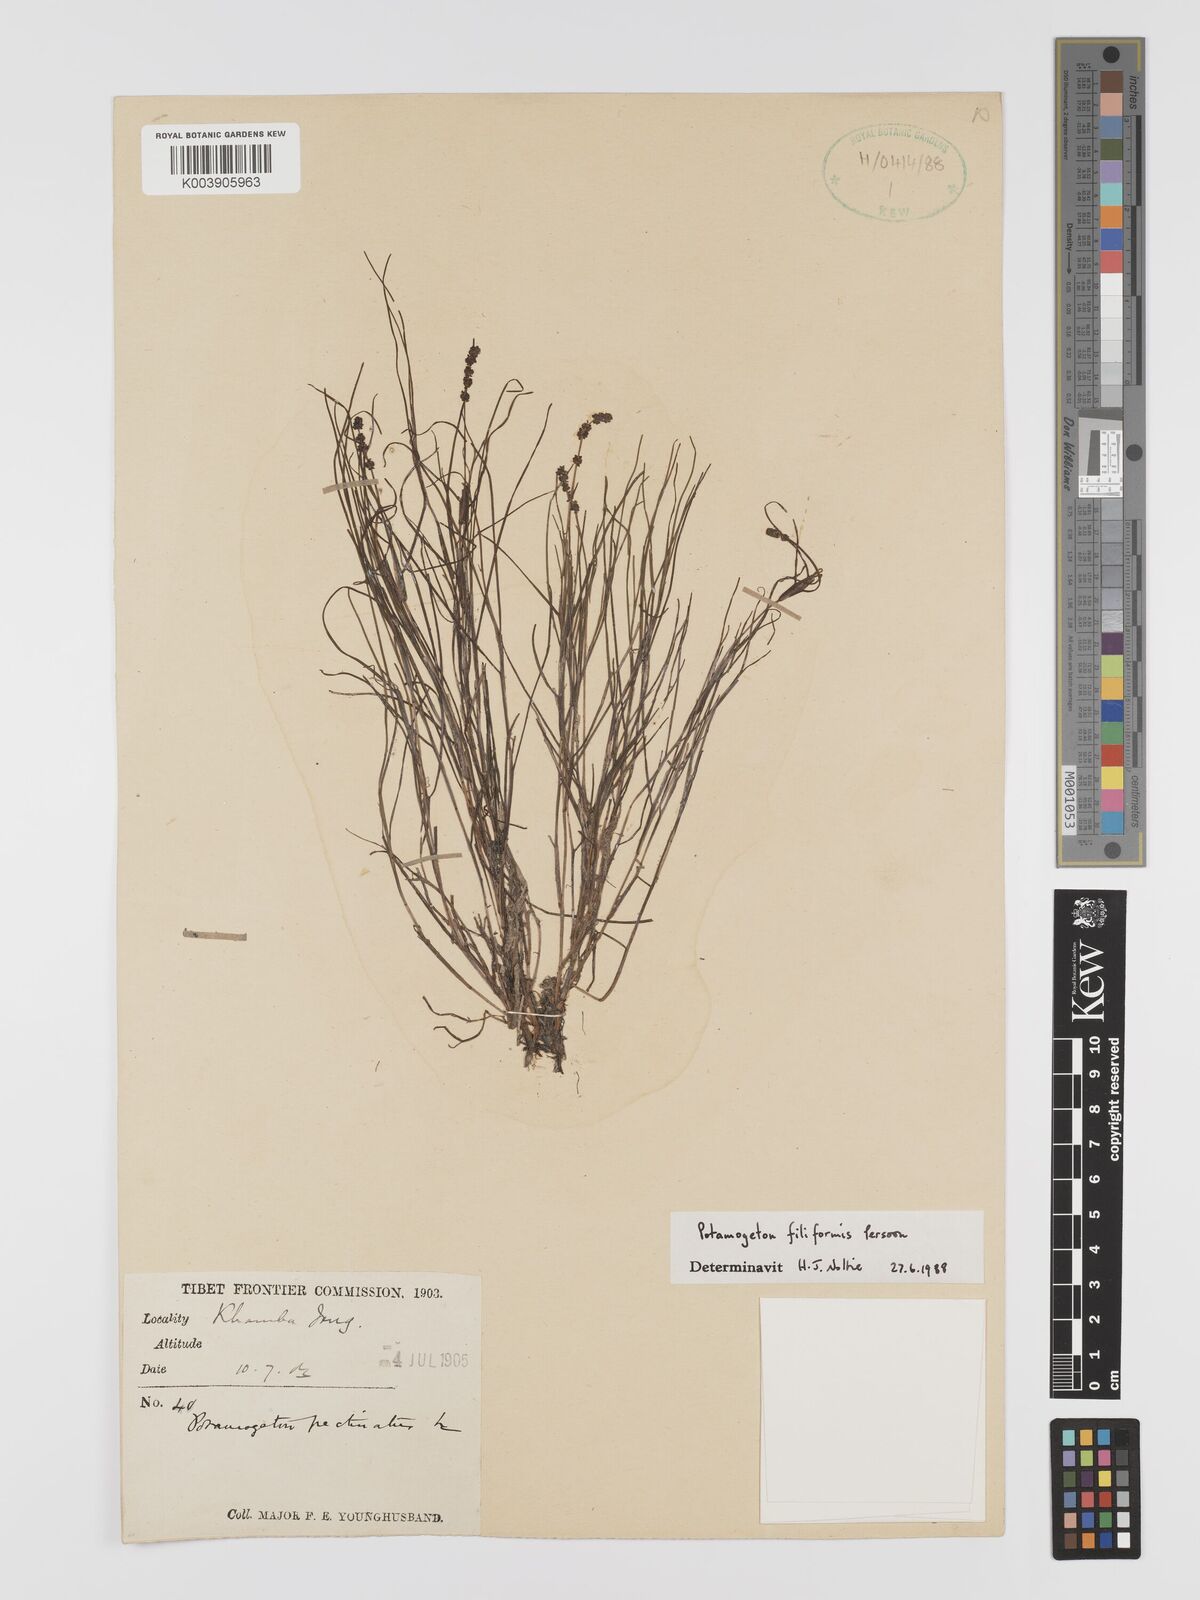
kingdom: Plantae
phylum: Tracheophyta
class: Liliopsida
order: Alismatales
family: Potamogetonaceae
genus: Potamogeton
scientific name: Potamogeton filiformis
